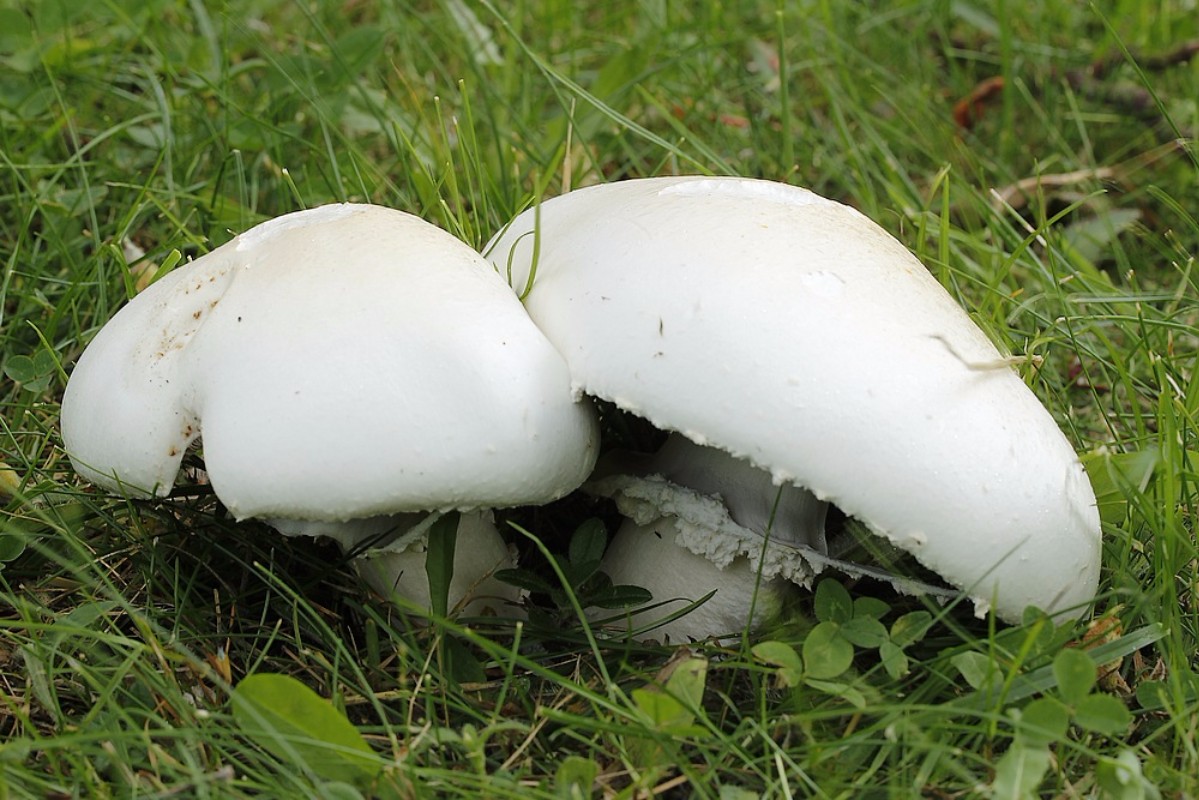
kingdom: Fungi
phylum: Basidiomycota
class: Agaricomycetes
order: Agaricales
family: Agaricaceae
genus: Agaricus
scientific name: Agaricus
